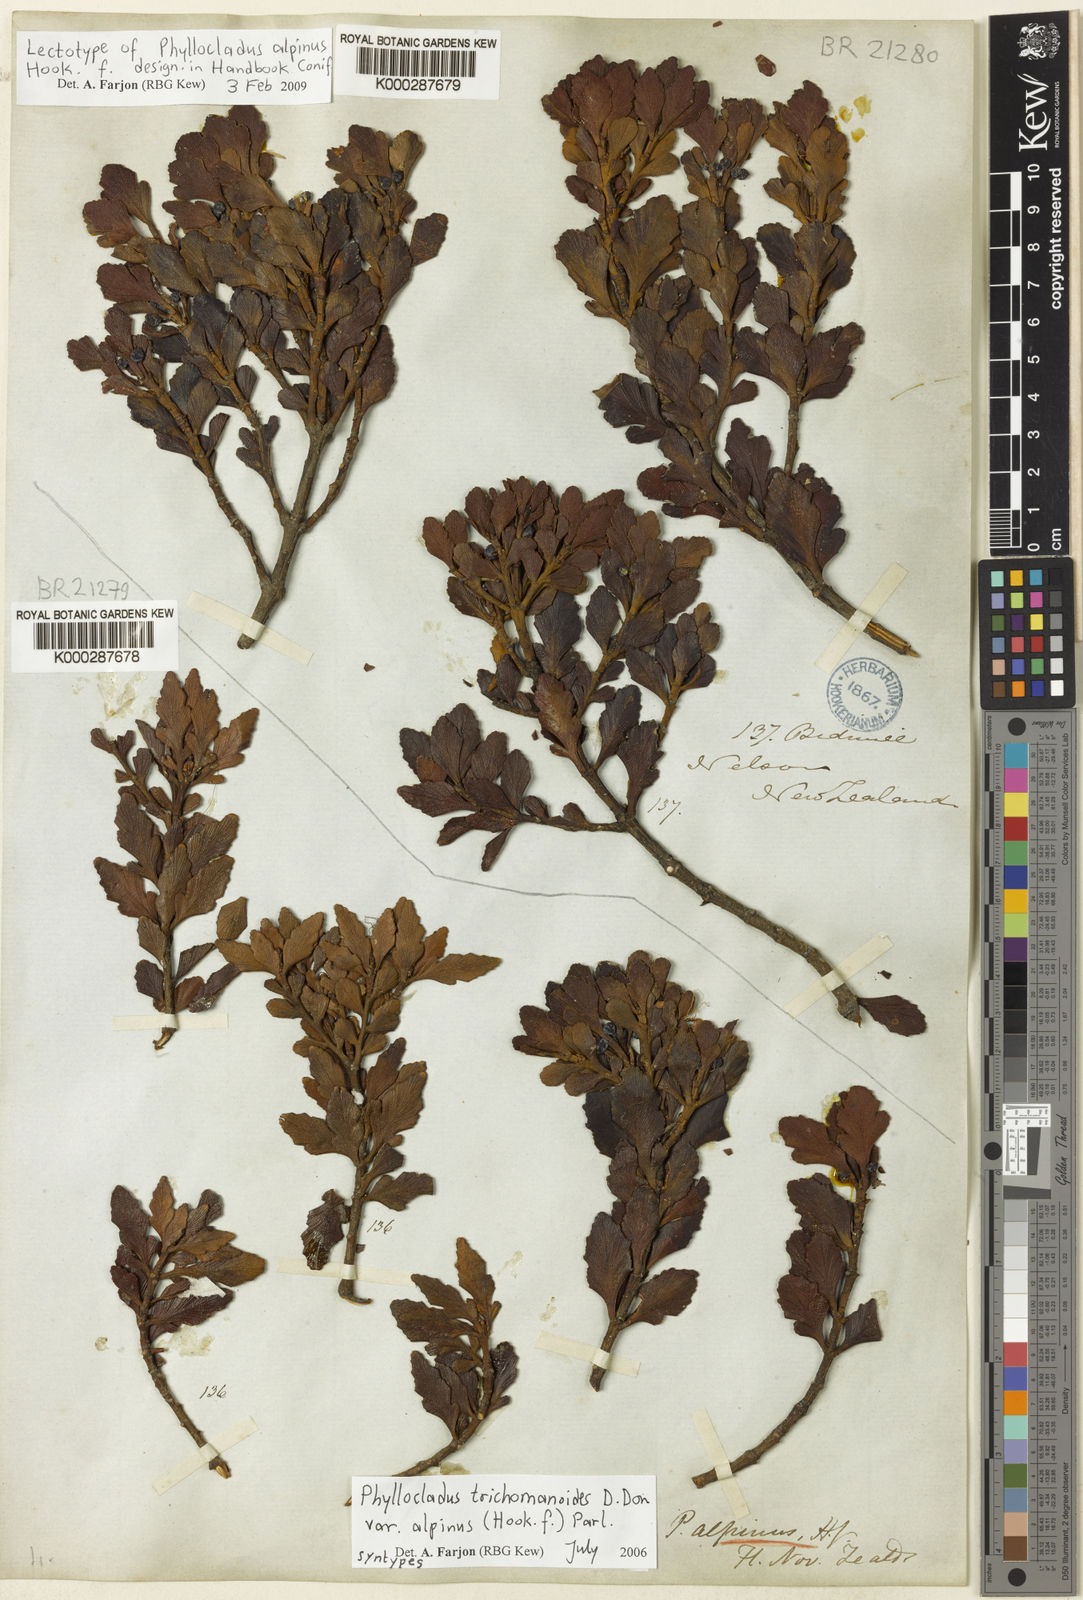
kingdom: Plantae
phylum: Tracheophyta
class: Pinopsida
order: Pinales
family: Phyllocladaceae
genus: Phyllocladus
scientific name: Phyllocladus trichomanoides
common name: Celery pine
